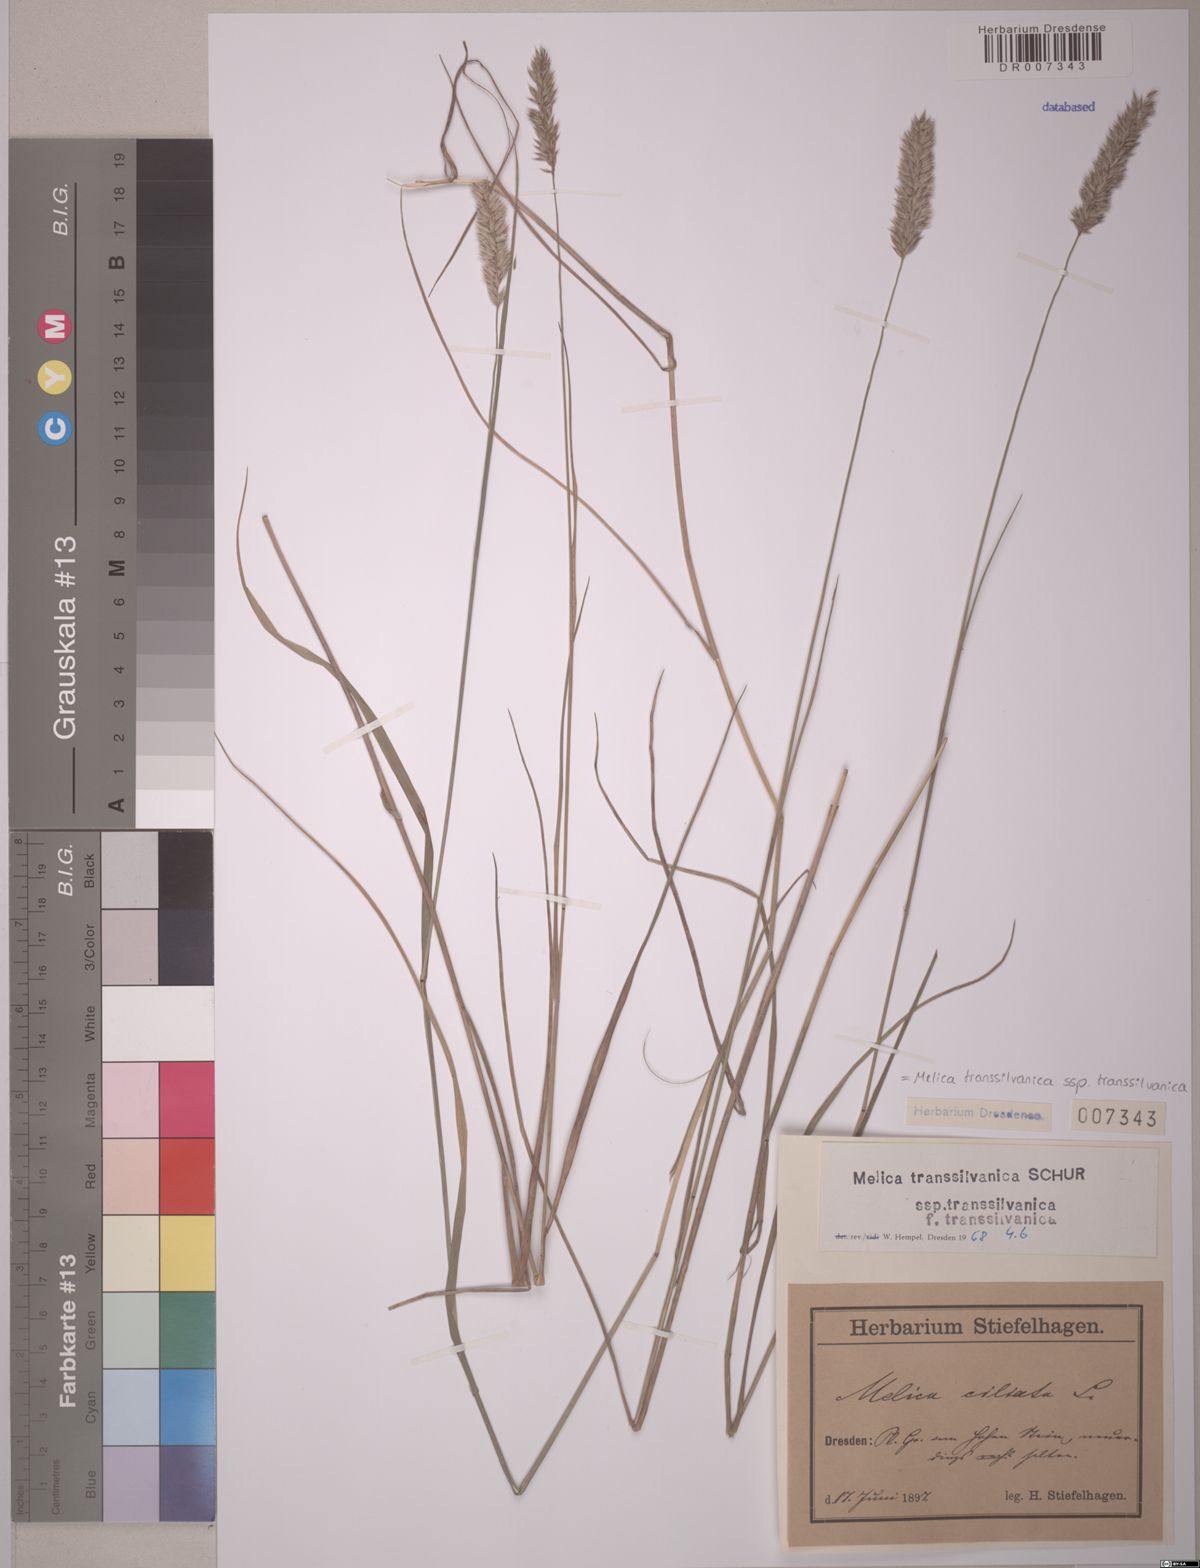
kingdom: Plantae
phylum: Tracheophyta
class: Liliopsida
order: Poales
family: Poaceae
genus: Melica
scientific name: Melica transsilvanica
